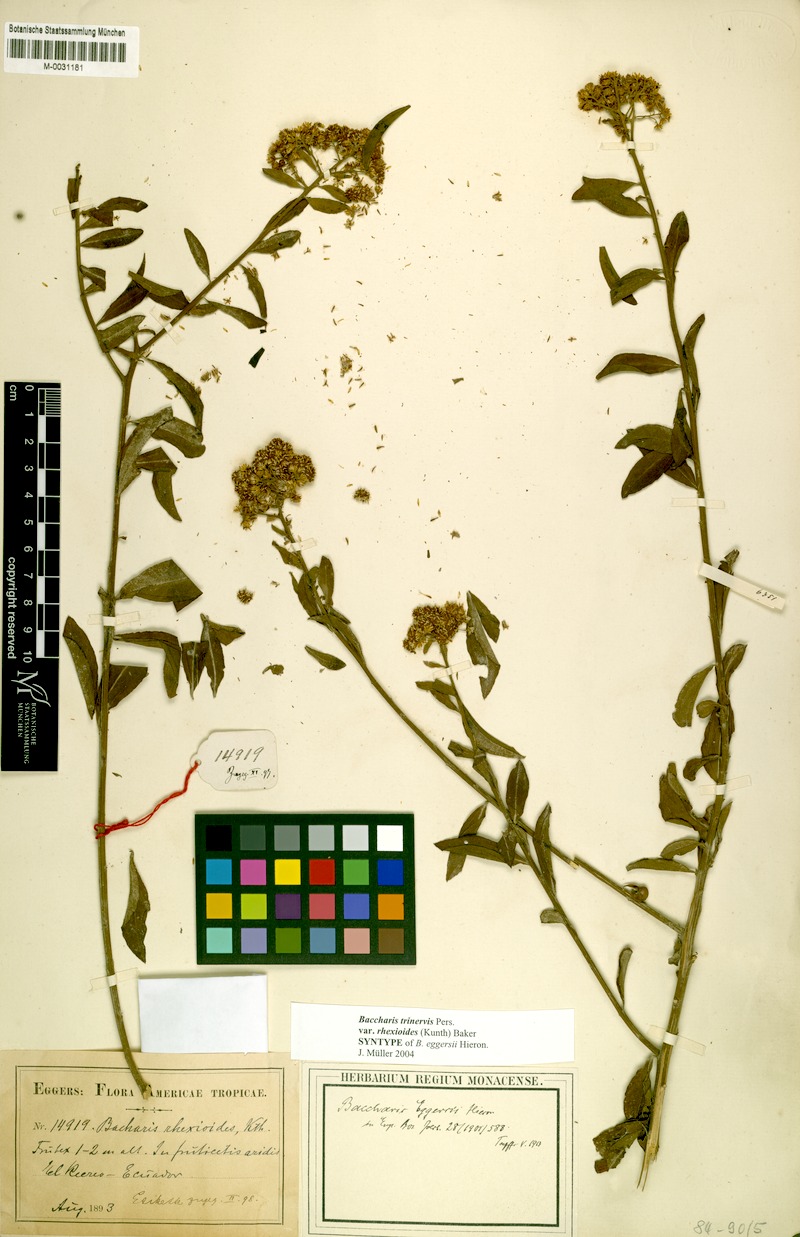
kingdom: Plantae
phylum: Tracheophyta
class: Magnoliopsida
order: Asterales
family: Asteraceae
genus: Baccharis
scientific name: Baccharis trinervis
